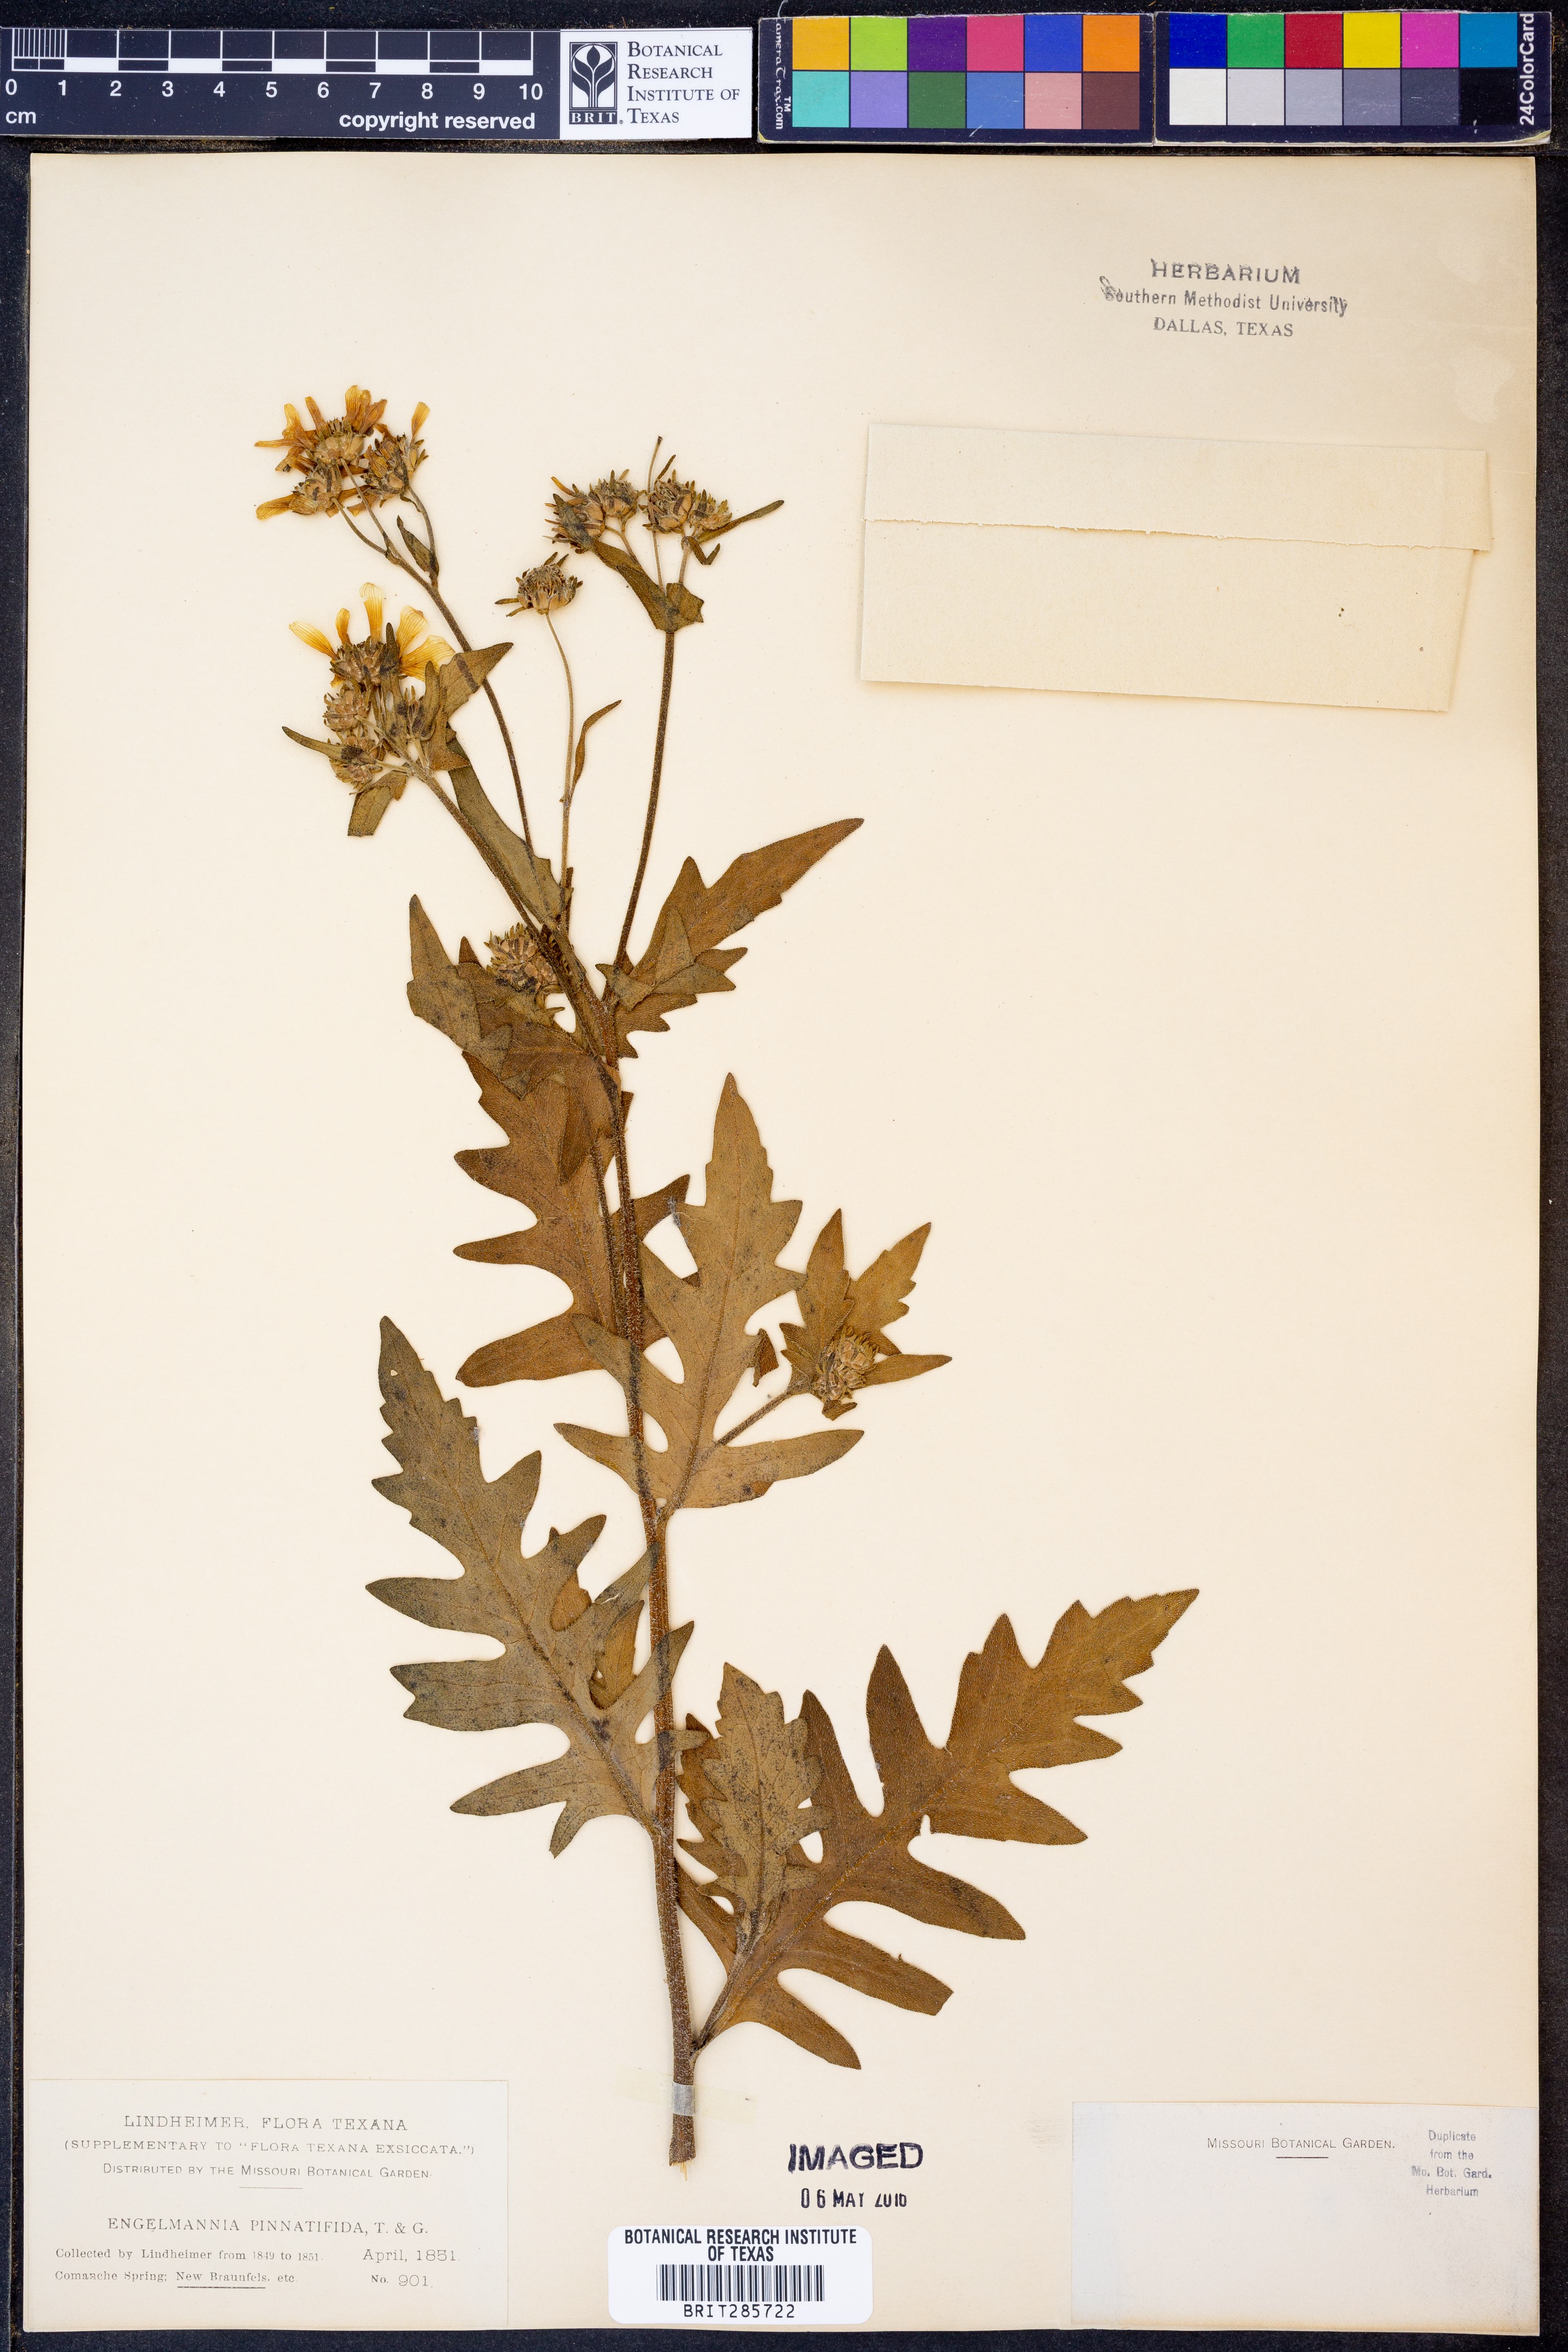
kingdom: Plantae
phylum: Tracheophyta
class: Magnoliopsida
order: Asterales
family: Asteraceae
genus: Engelmannia
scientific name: Engelmannia peristenia
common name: Engelmann's daisy
